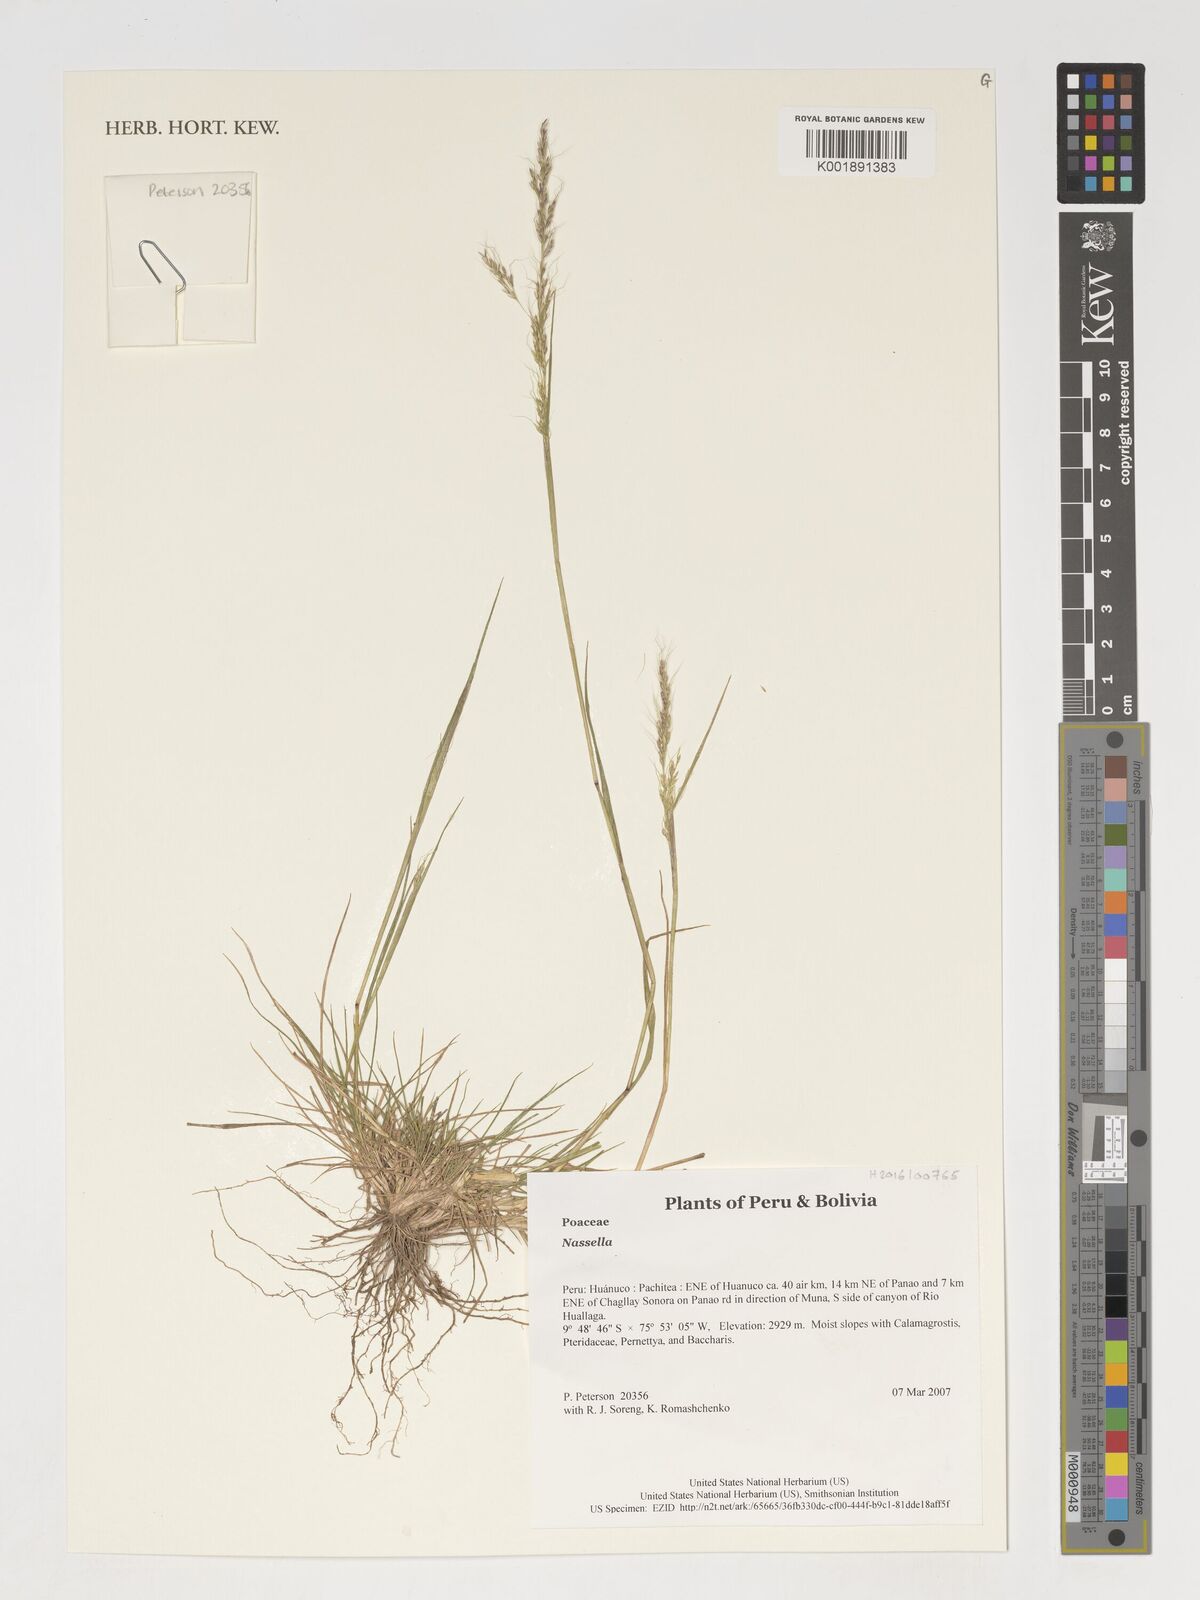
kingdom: Plantae
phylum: Tracheophyta
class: Liliopsida
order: Poales
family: Poaceae
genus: Nassella
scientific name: Nassella
